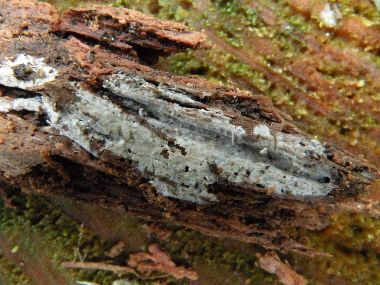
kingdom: Fungi
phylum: Basidiomycota
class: Agaricomycetes
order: Hymenochaetales
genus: Kurtia
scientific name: Kurtia argillacea
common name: Kurts kalkskind
